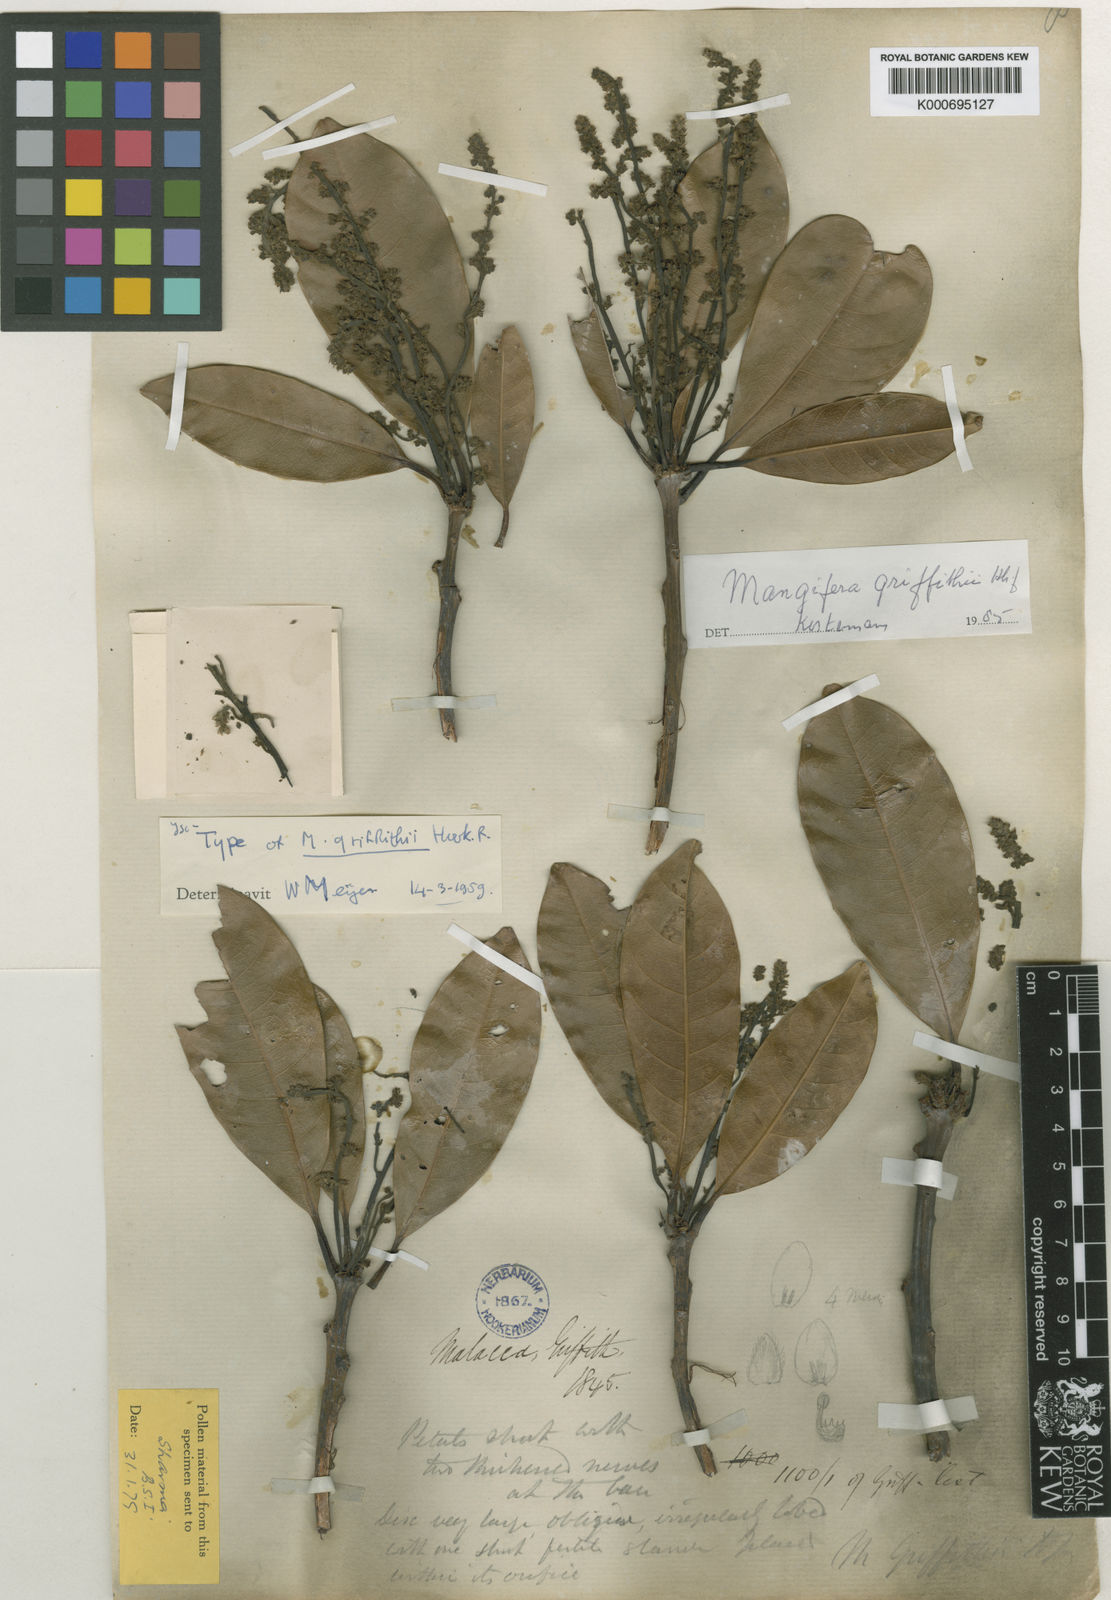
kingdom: Plantae
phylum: Tracheophyta
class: Magnoliopsida
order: Sapindales
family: Anacardiaceae
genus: Mangifera
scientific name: Mangifera griffithii
